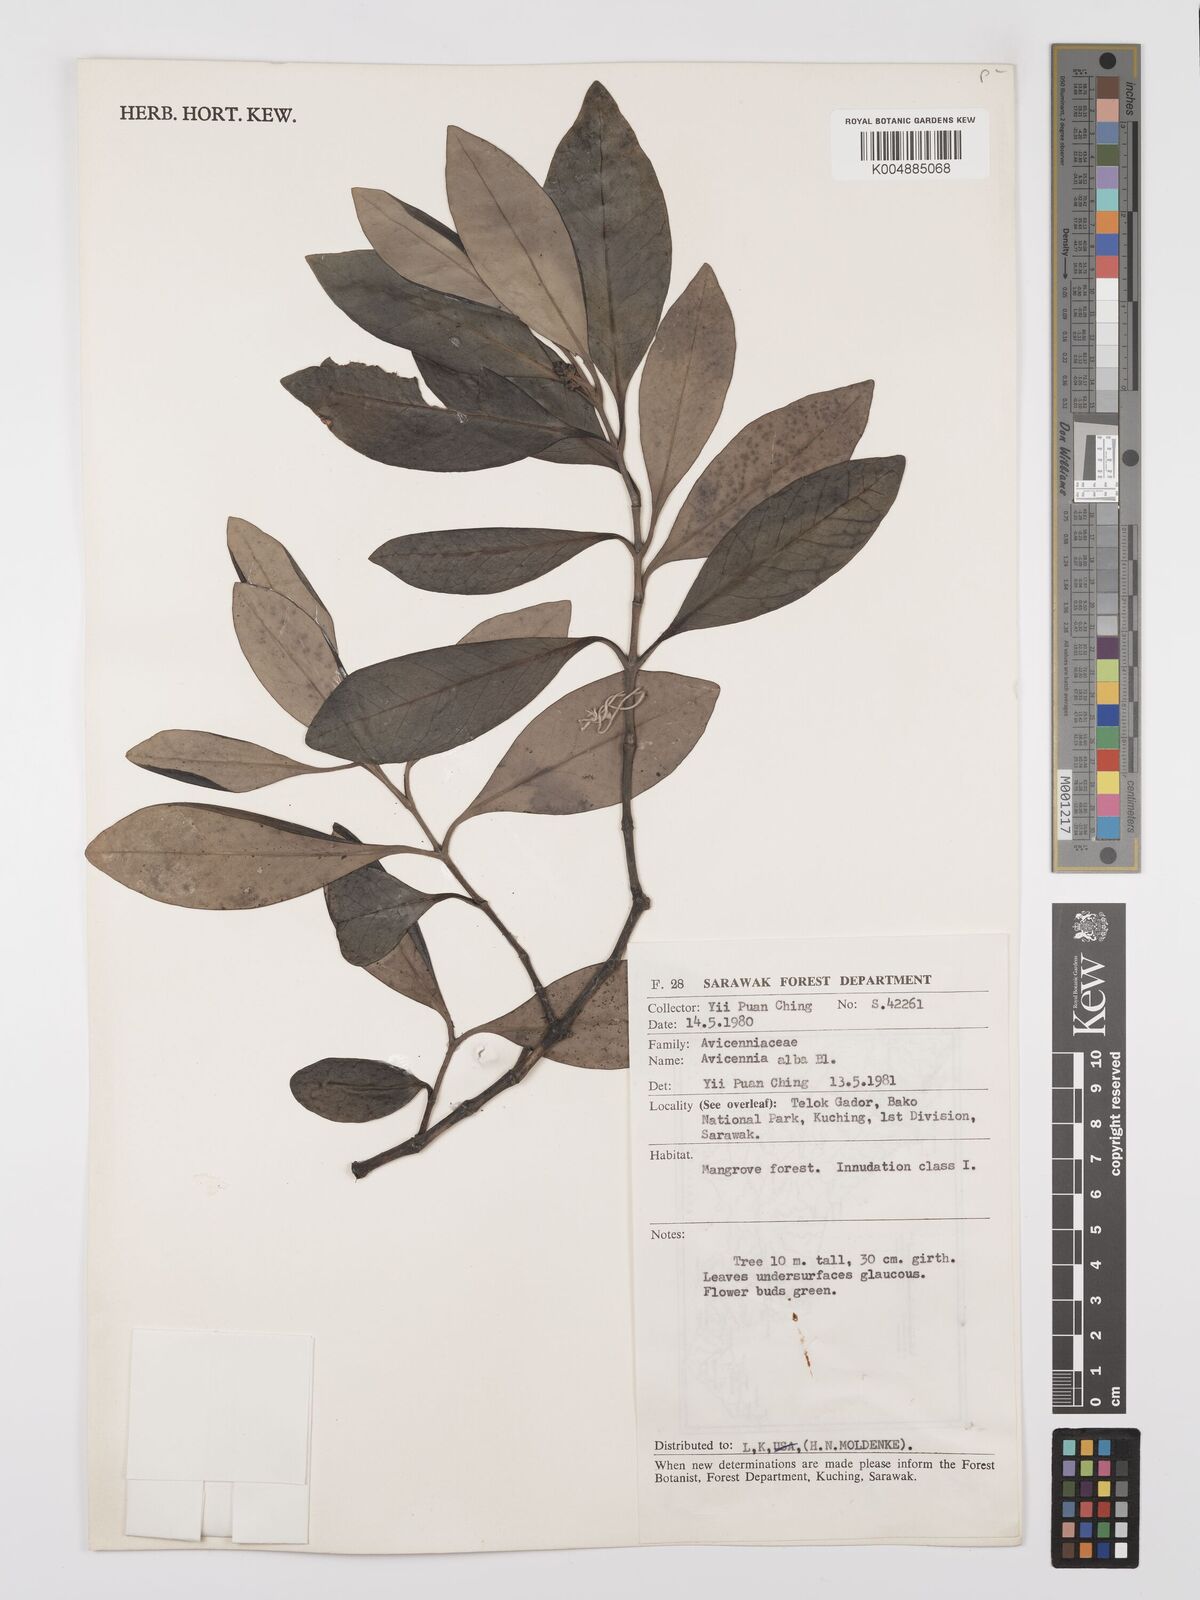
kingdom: Plantae
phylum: Tracheophyta
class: Magnoliopsida
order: Lamiales
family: Acanthaceae
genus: Avicennia
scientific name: Avicennia alba
